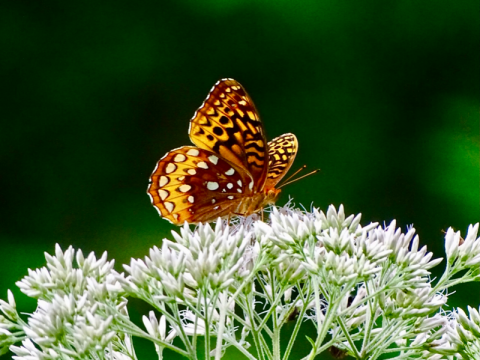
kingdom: Animalia
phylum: Arthropoda
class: Insecta
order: Lepidoptera
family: Nymphalidae
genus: Speyeria
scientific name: Speyeria cybele
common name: Great Spangled Fritillary
